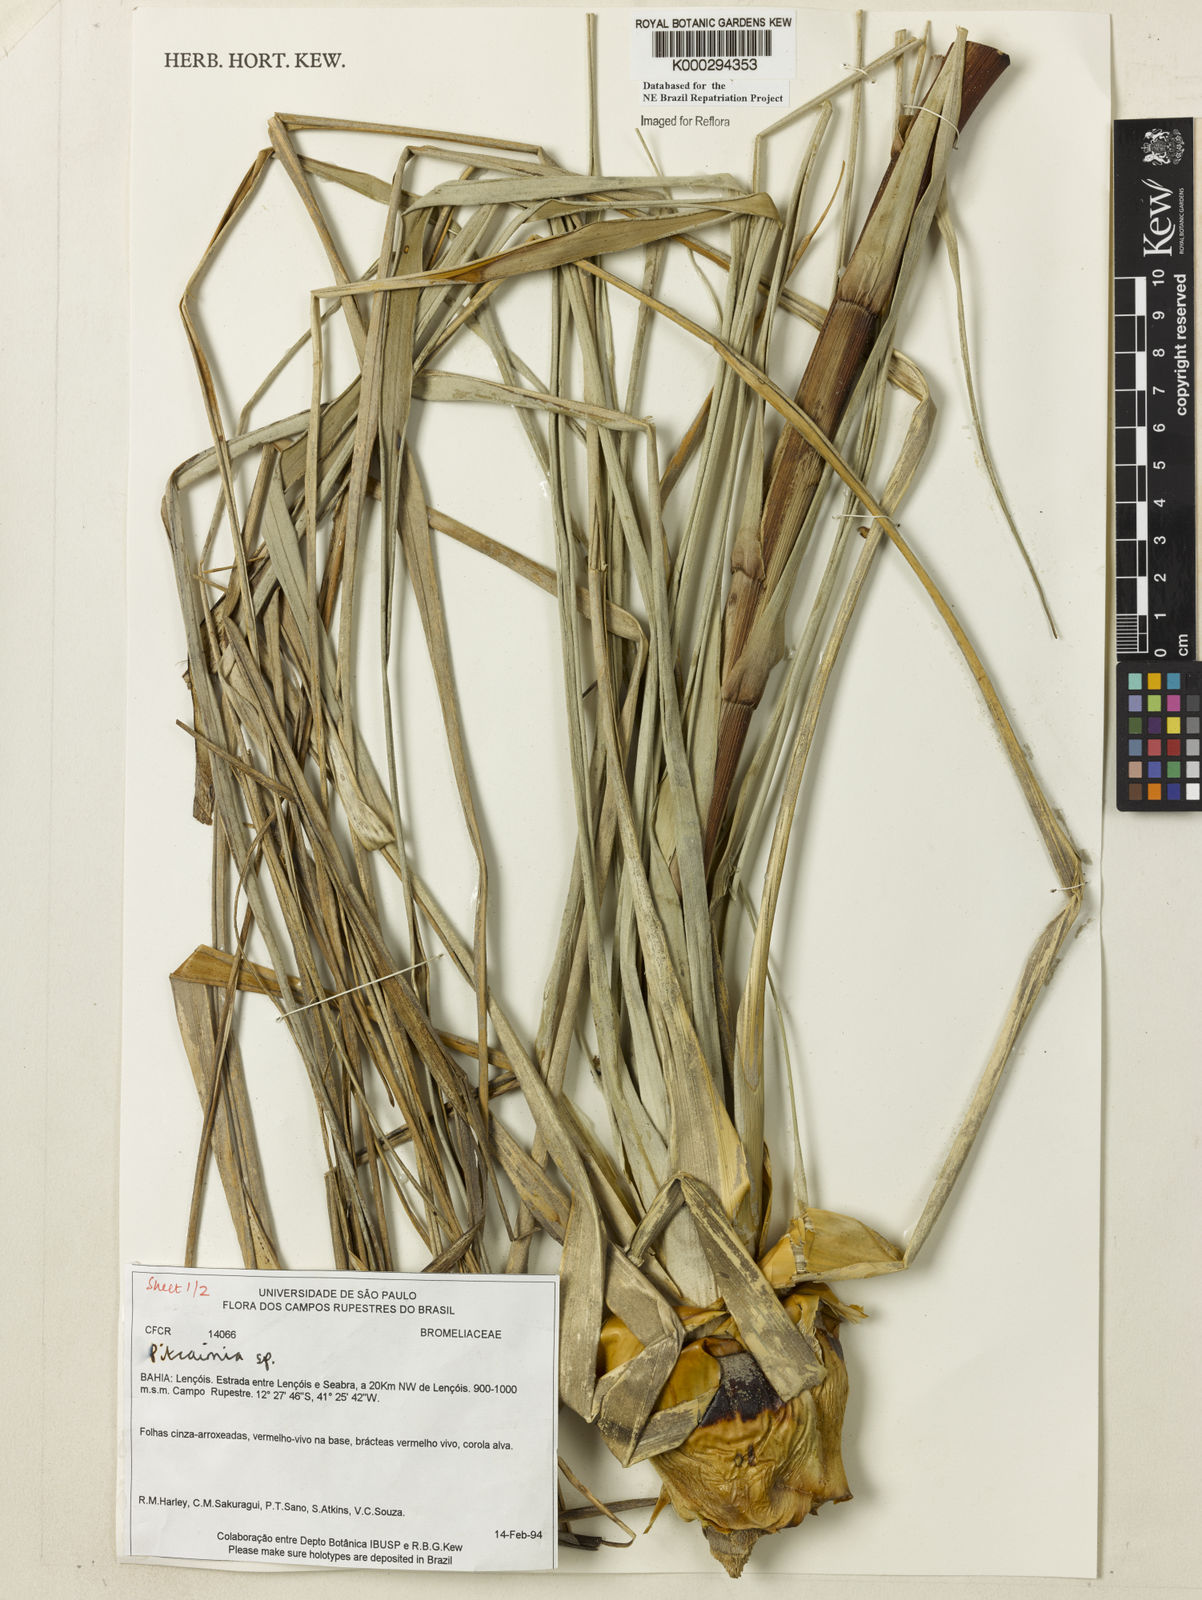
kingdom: Plantae
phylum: Tracheophyta
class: Liliopsida
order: Poales
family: Bromeliaceae
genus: Pitcairnia
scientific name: Pitcairnia
